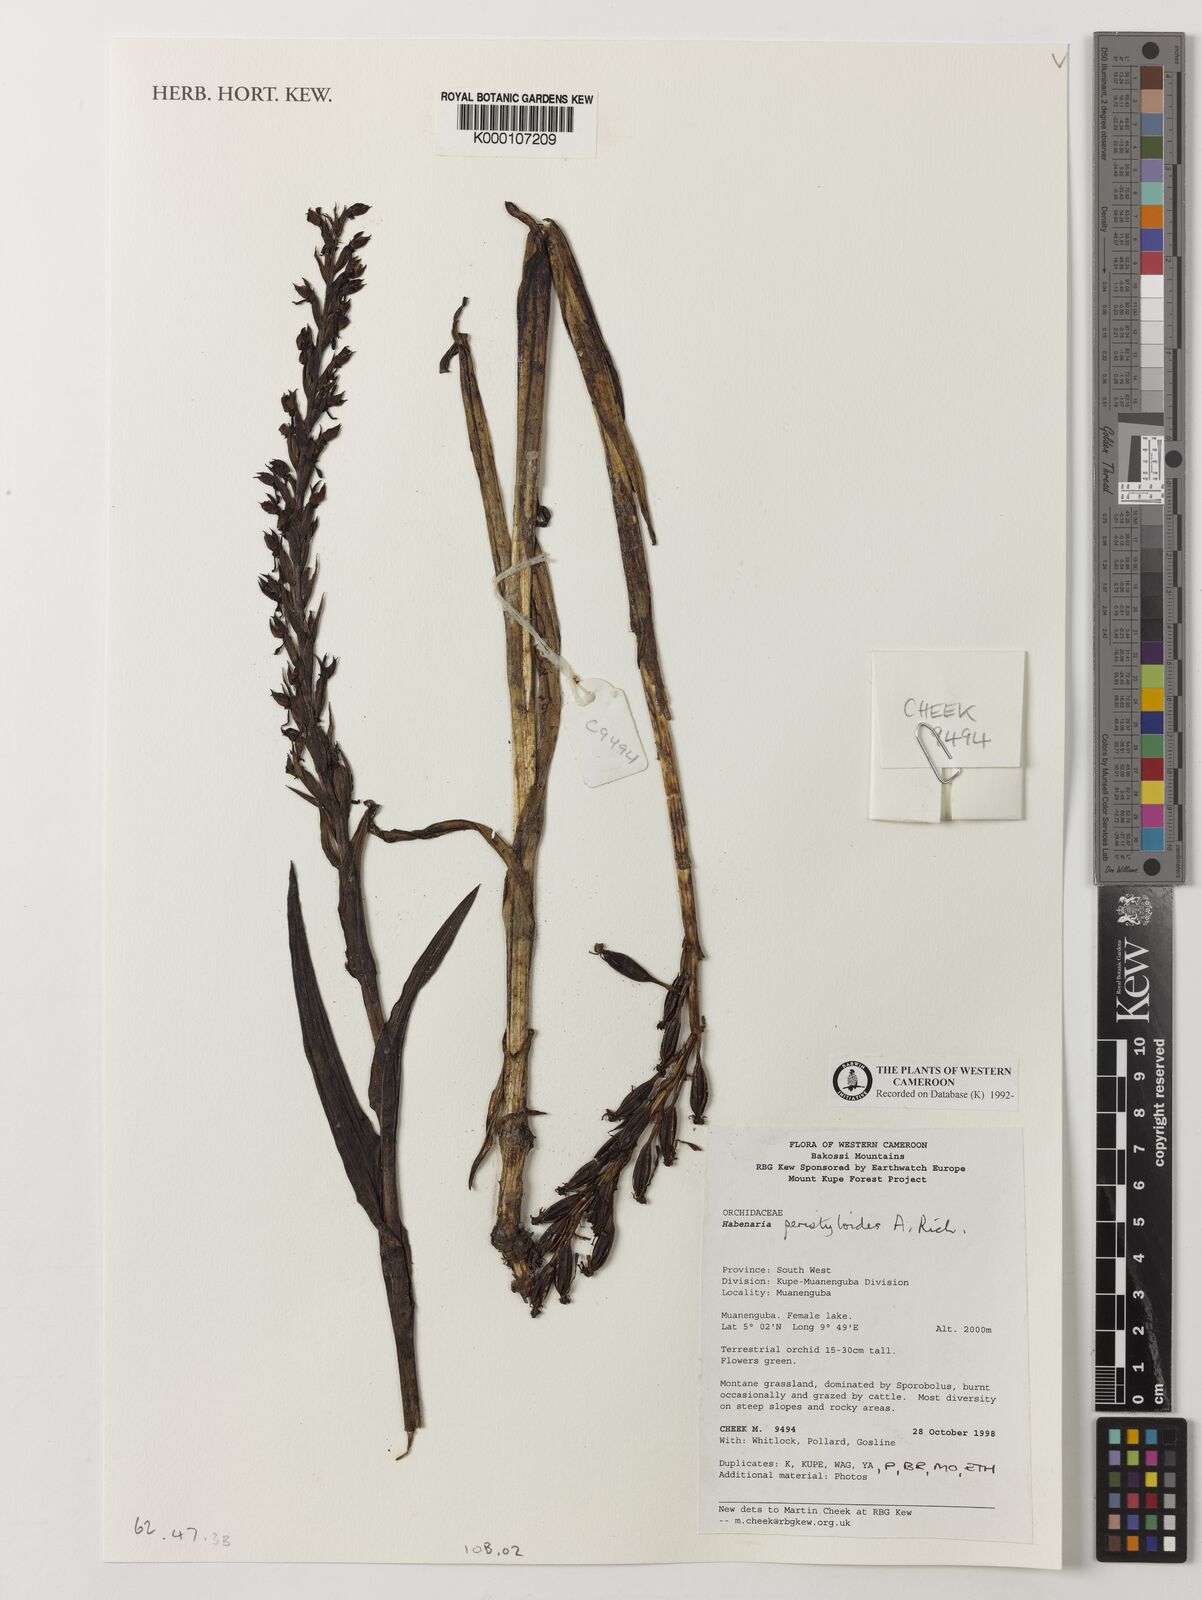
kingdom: Plantae
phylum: Tracheophyta
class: Liliopsida
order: Asparagales
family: Orchidaceae
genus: Habenaria
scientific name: Habenaria peristyloides
